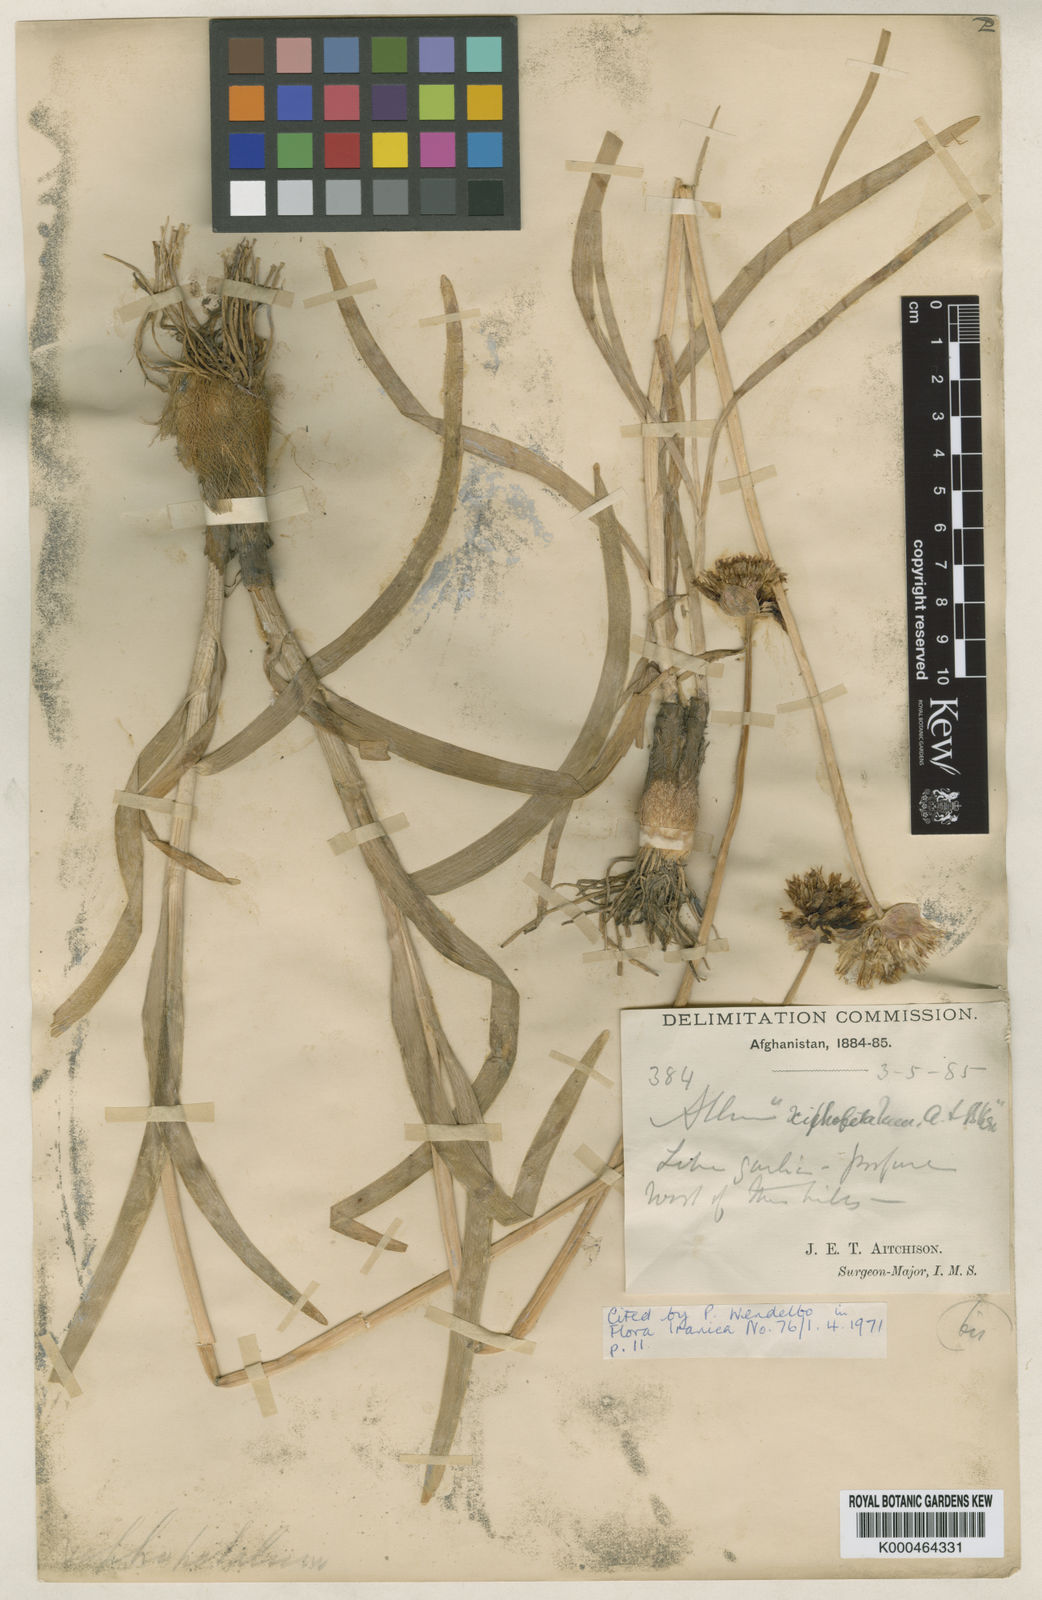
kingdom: Plantae
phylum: Tracheophyta
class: Liliopsida
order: Asparagales
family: Amaryllidaceae
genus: Allium
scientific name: Allium xiphopetalum
